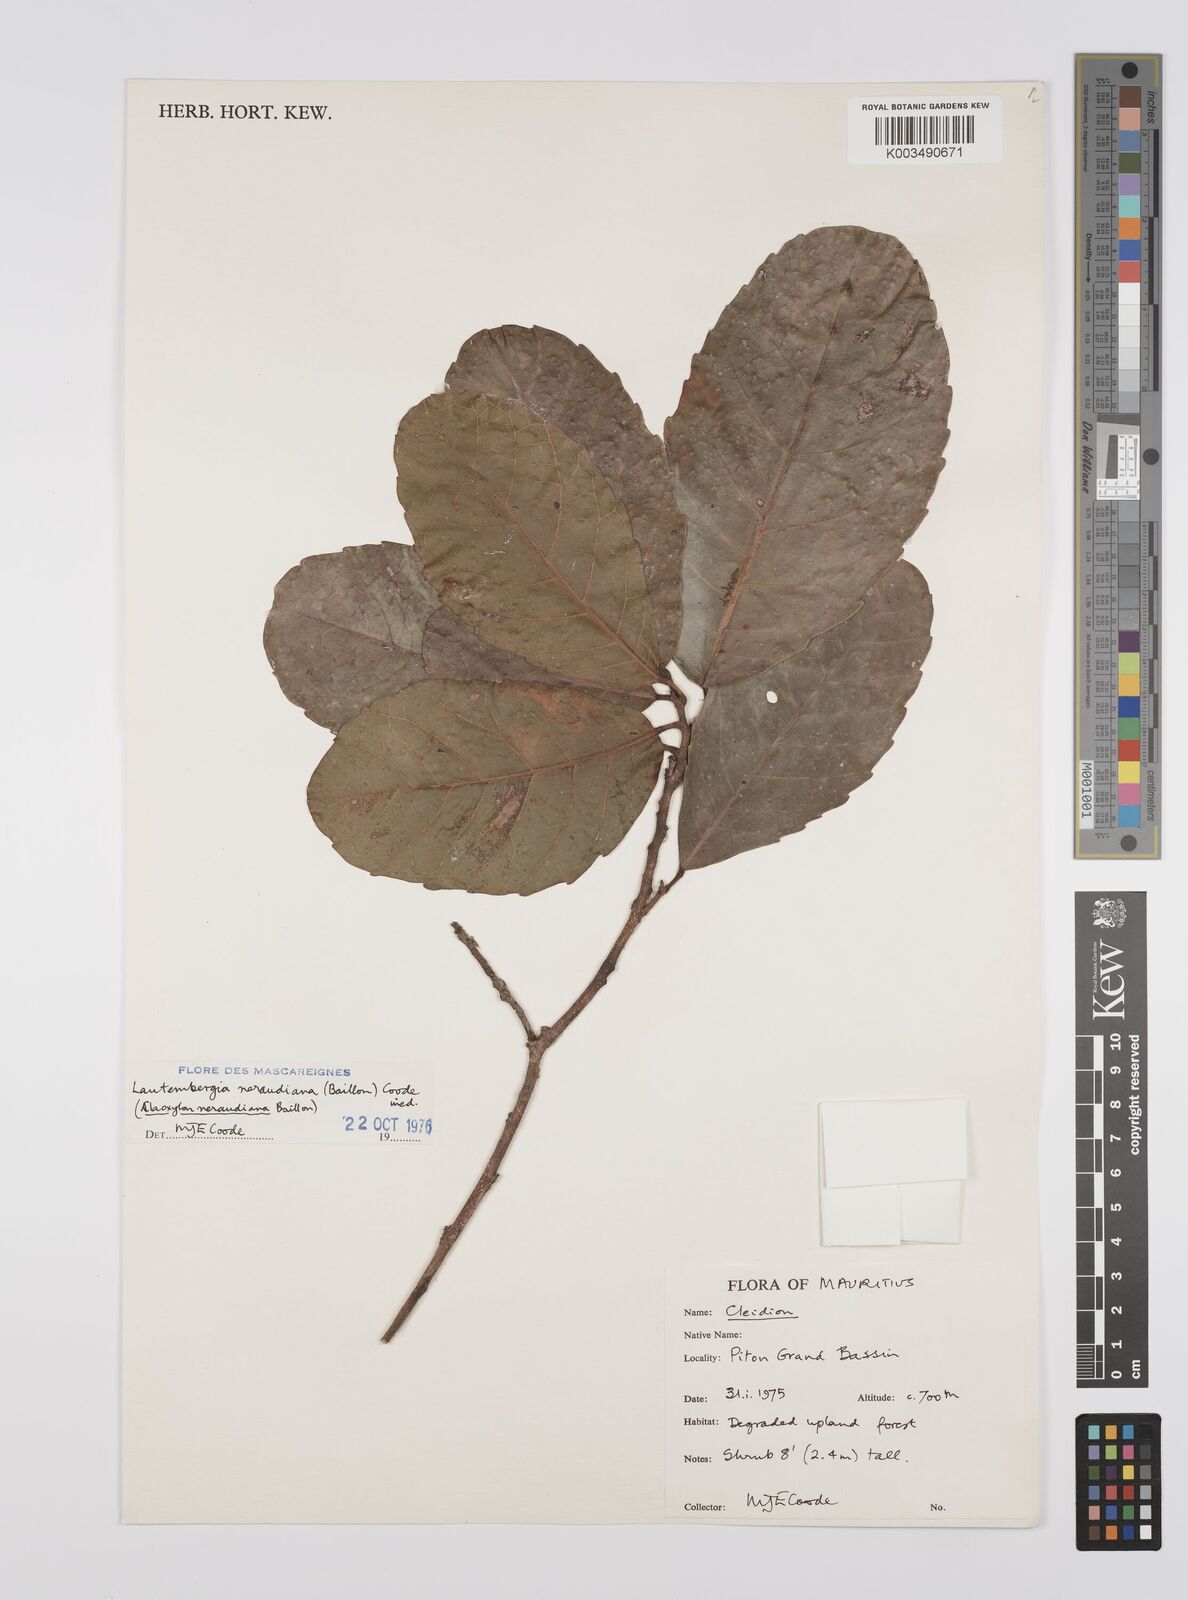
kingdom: Plantae
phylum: Tracheophyta
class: Magnoliopsida
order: Malpighiales
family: Euphorbiaceae
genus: Orfilea
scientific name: Orfilea neraudiana
